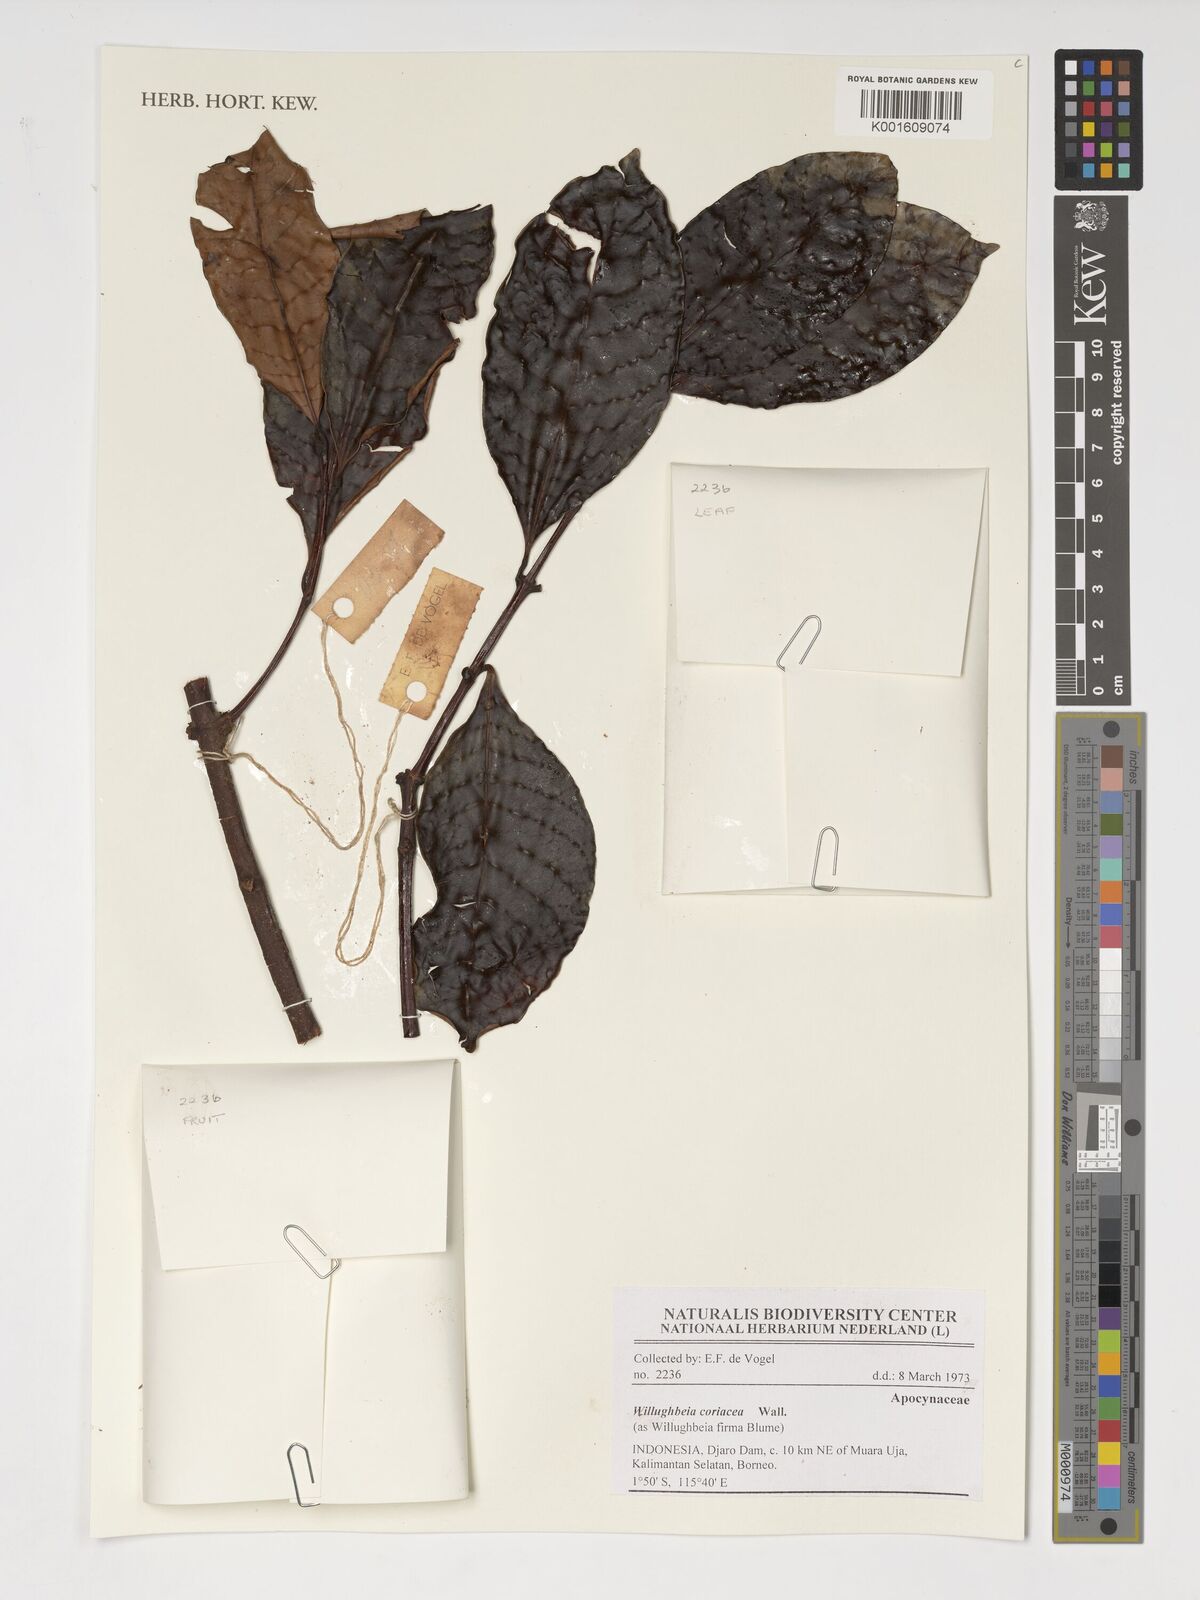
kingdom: Plantae
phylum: Tracheophyta
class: Magnoliopsida
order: Gentianales
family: Apocynaceae
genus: Willughbeia
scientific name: Willughbeia coriacea
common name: Borneo-rubber
